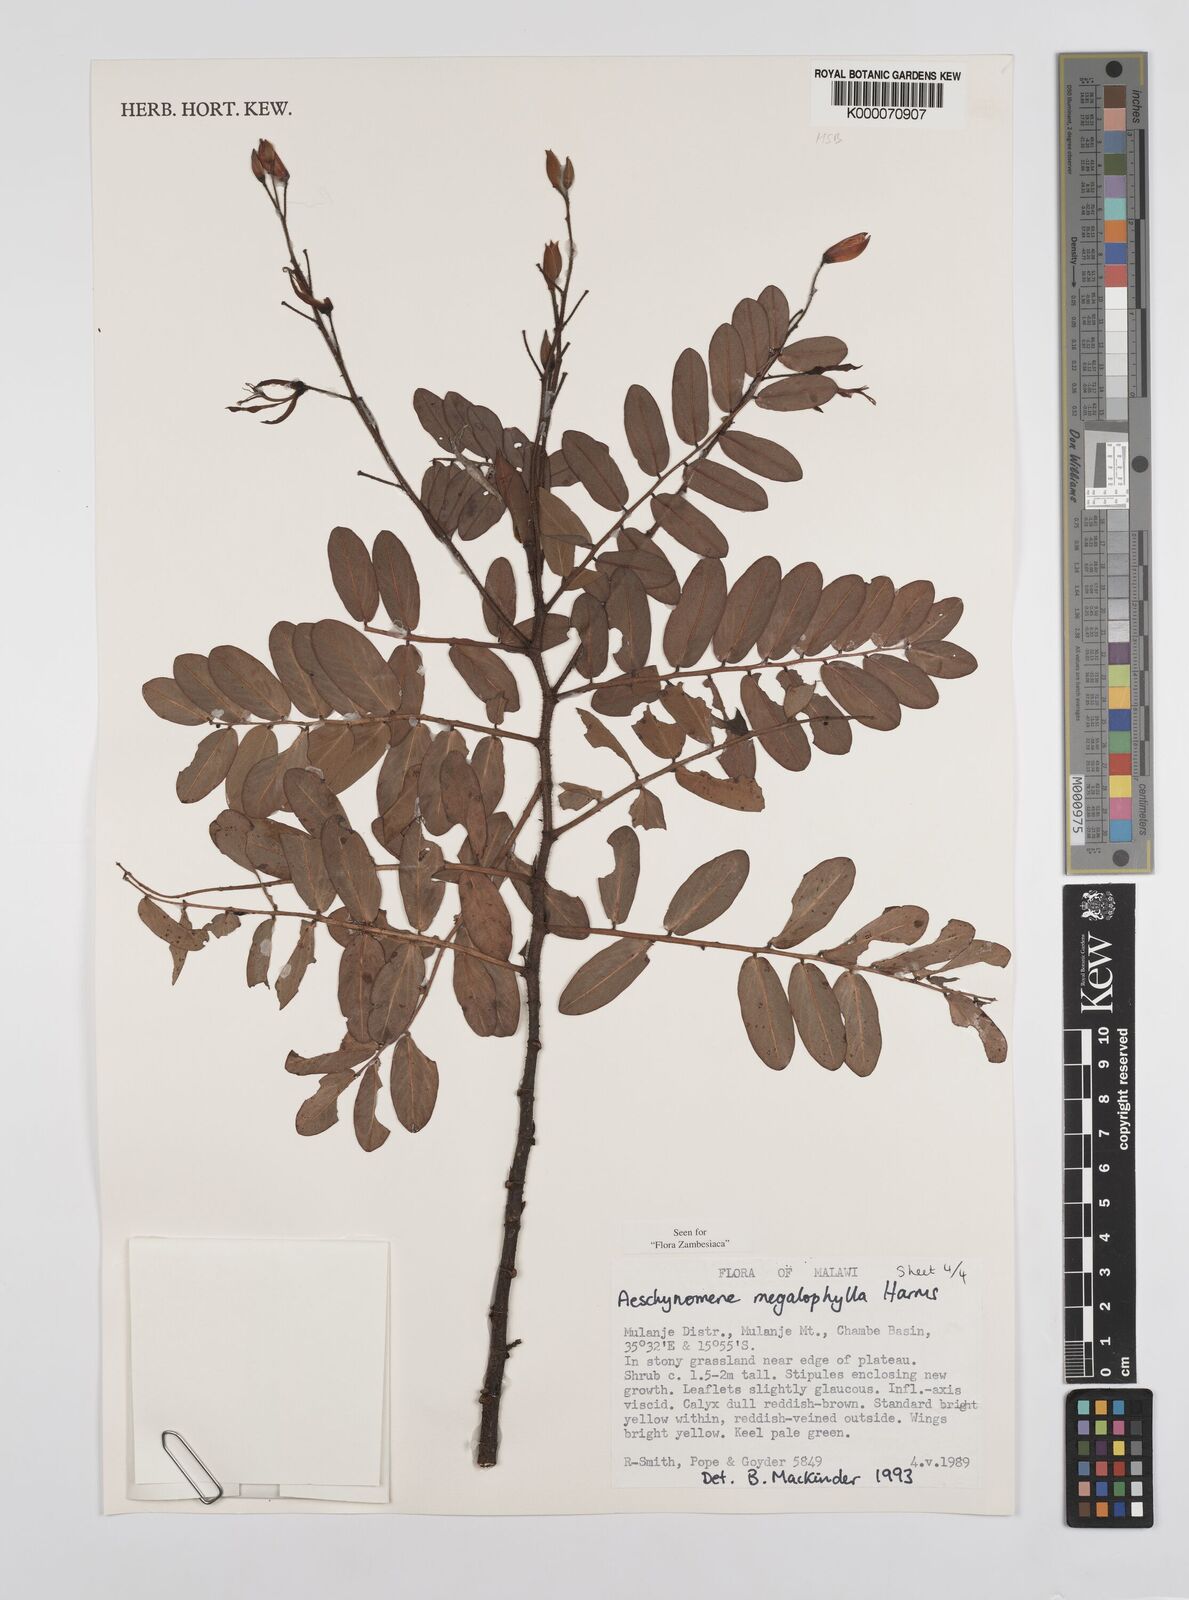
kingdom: Plantae
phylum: Tracheophyta
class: Magnoliopsida
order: Fabales
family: Fabaceae
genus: Aeschynomene
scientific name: Aeschynomene megalophylla
